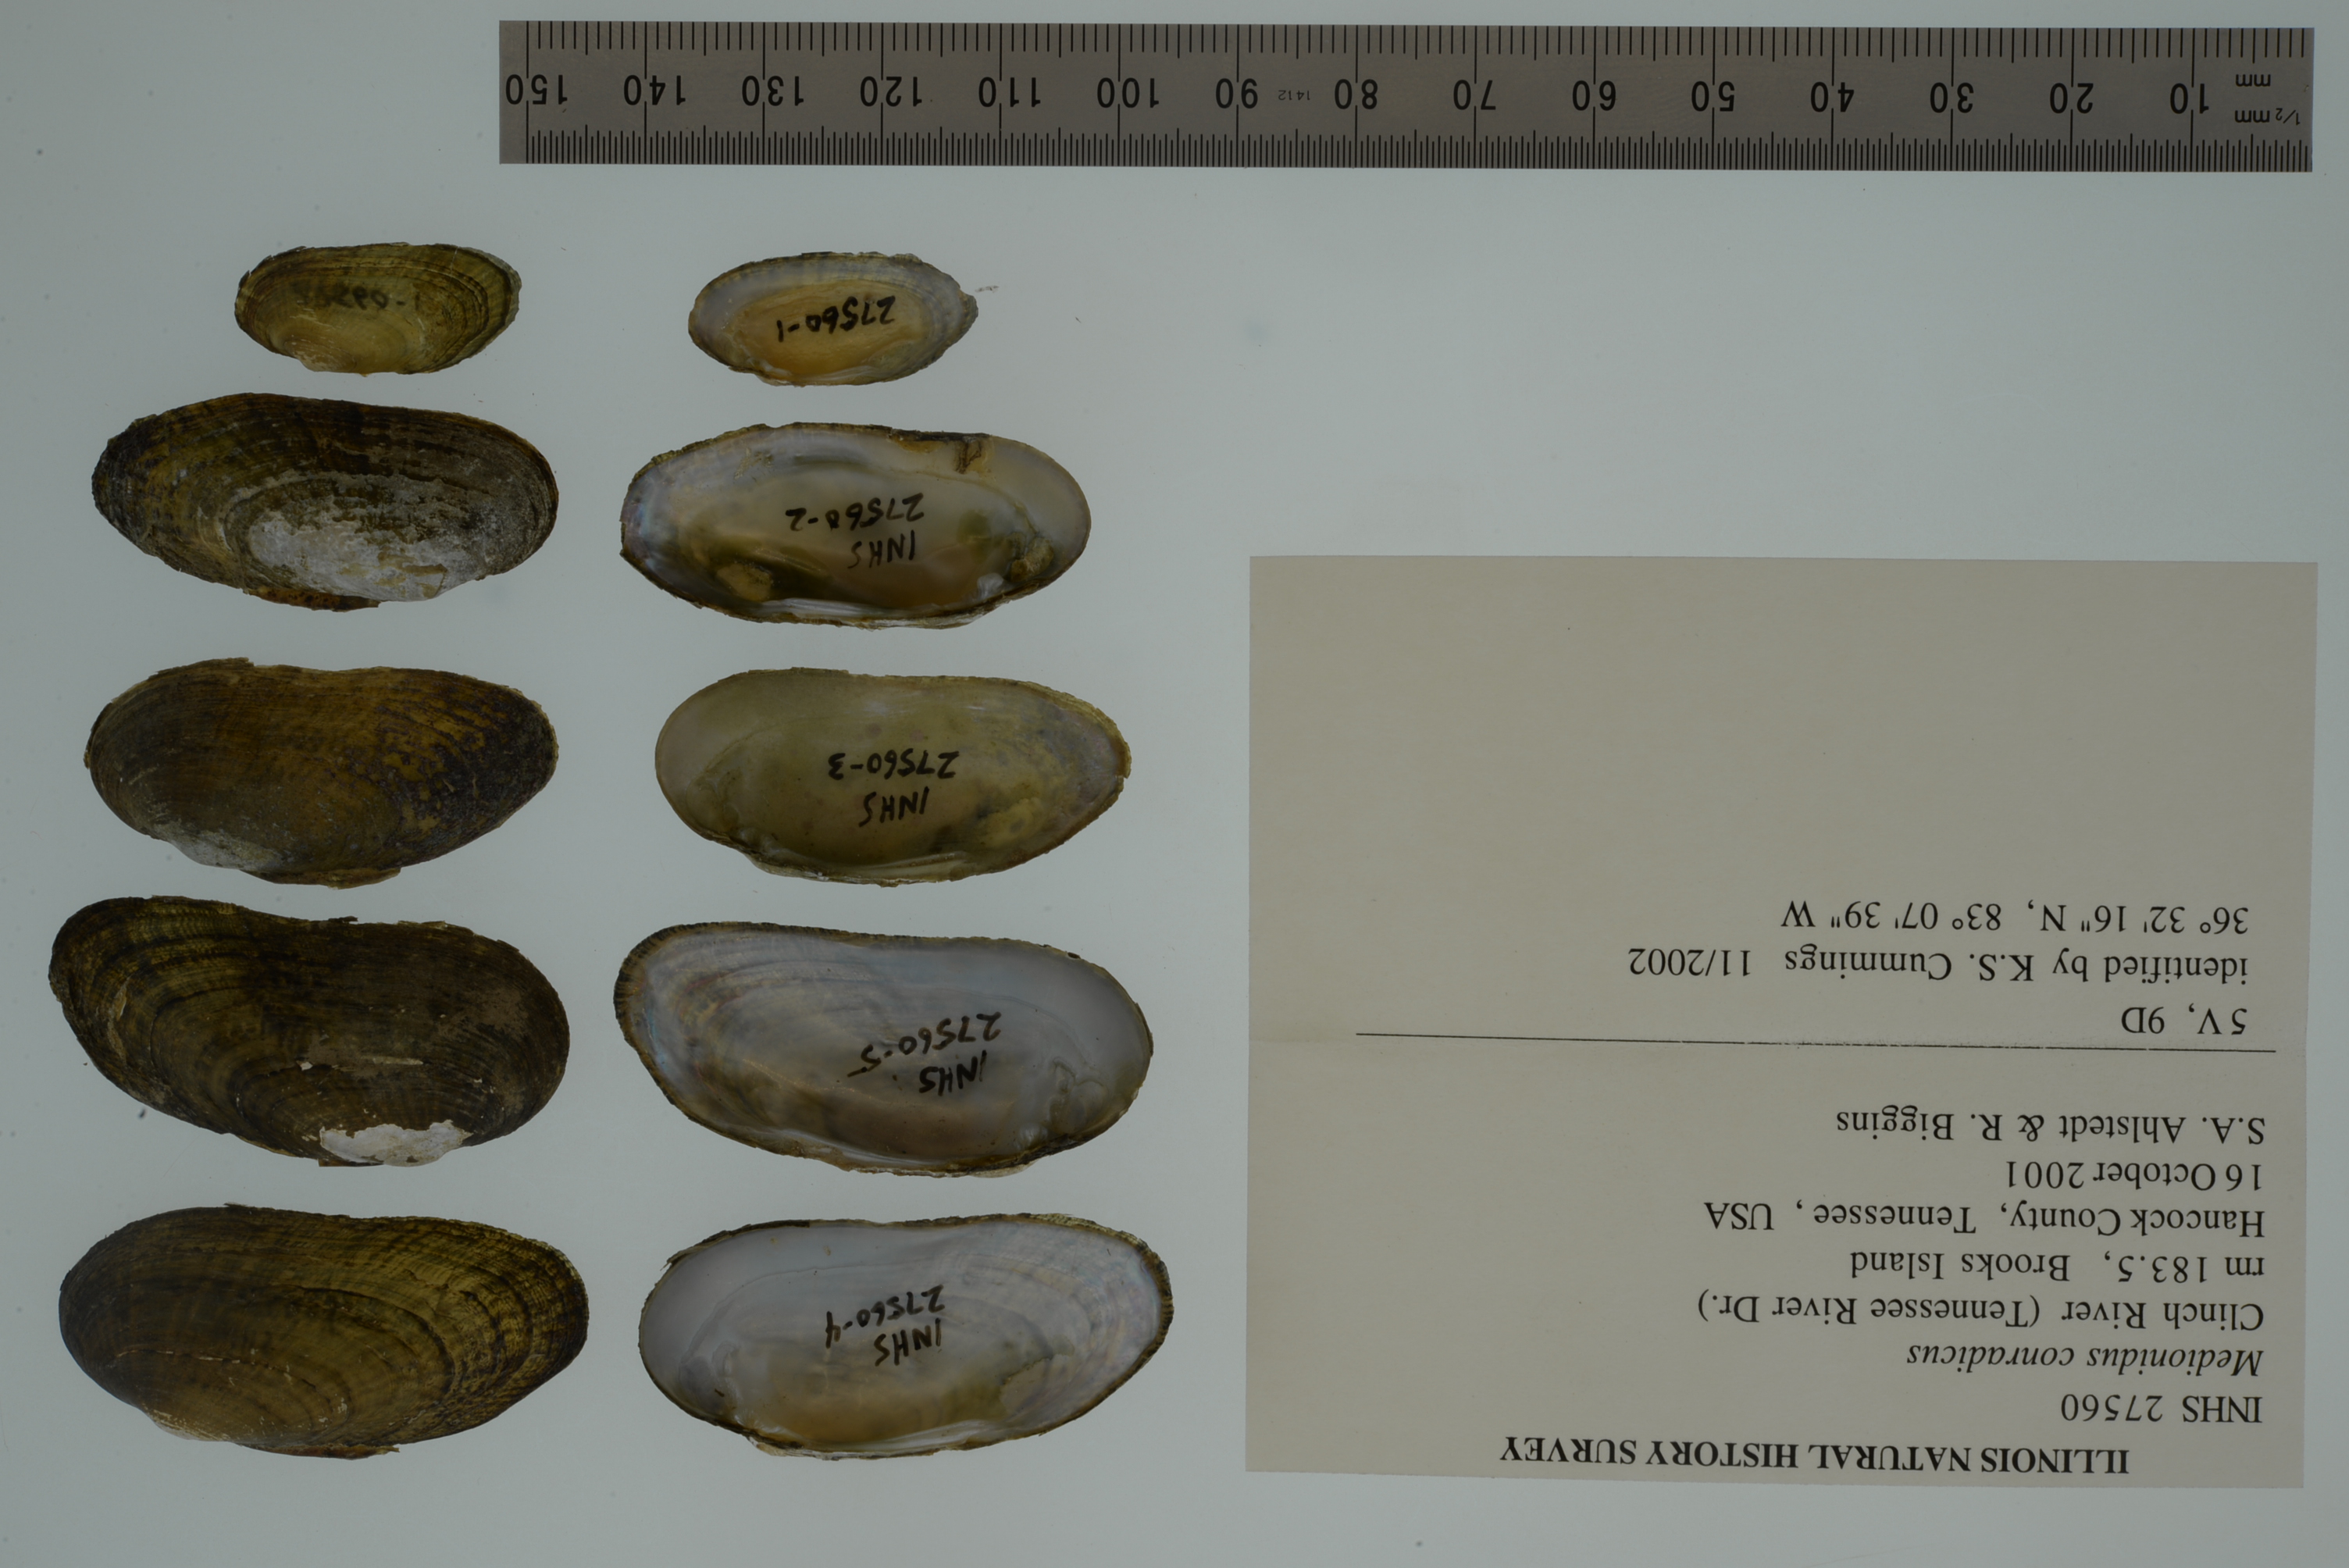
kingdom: Animalia
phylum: Mollusca
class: Bivalvia
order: Unionida
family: Unionidae
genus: Medionidus
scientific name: Medionidus conradicus
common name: Cumberland mocassinshell
